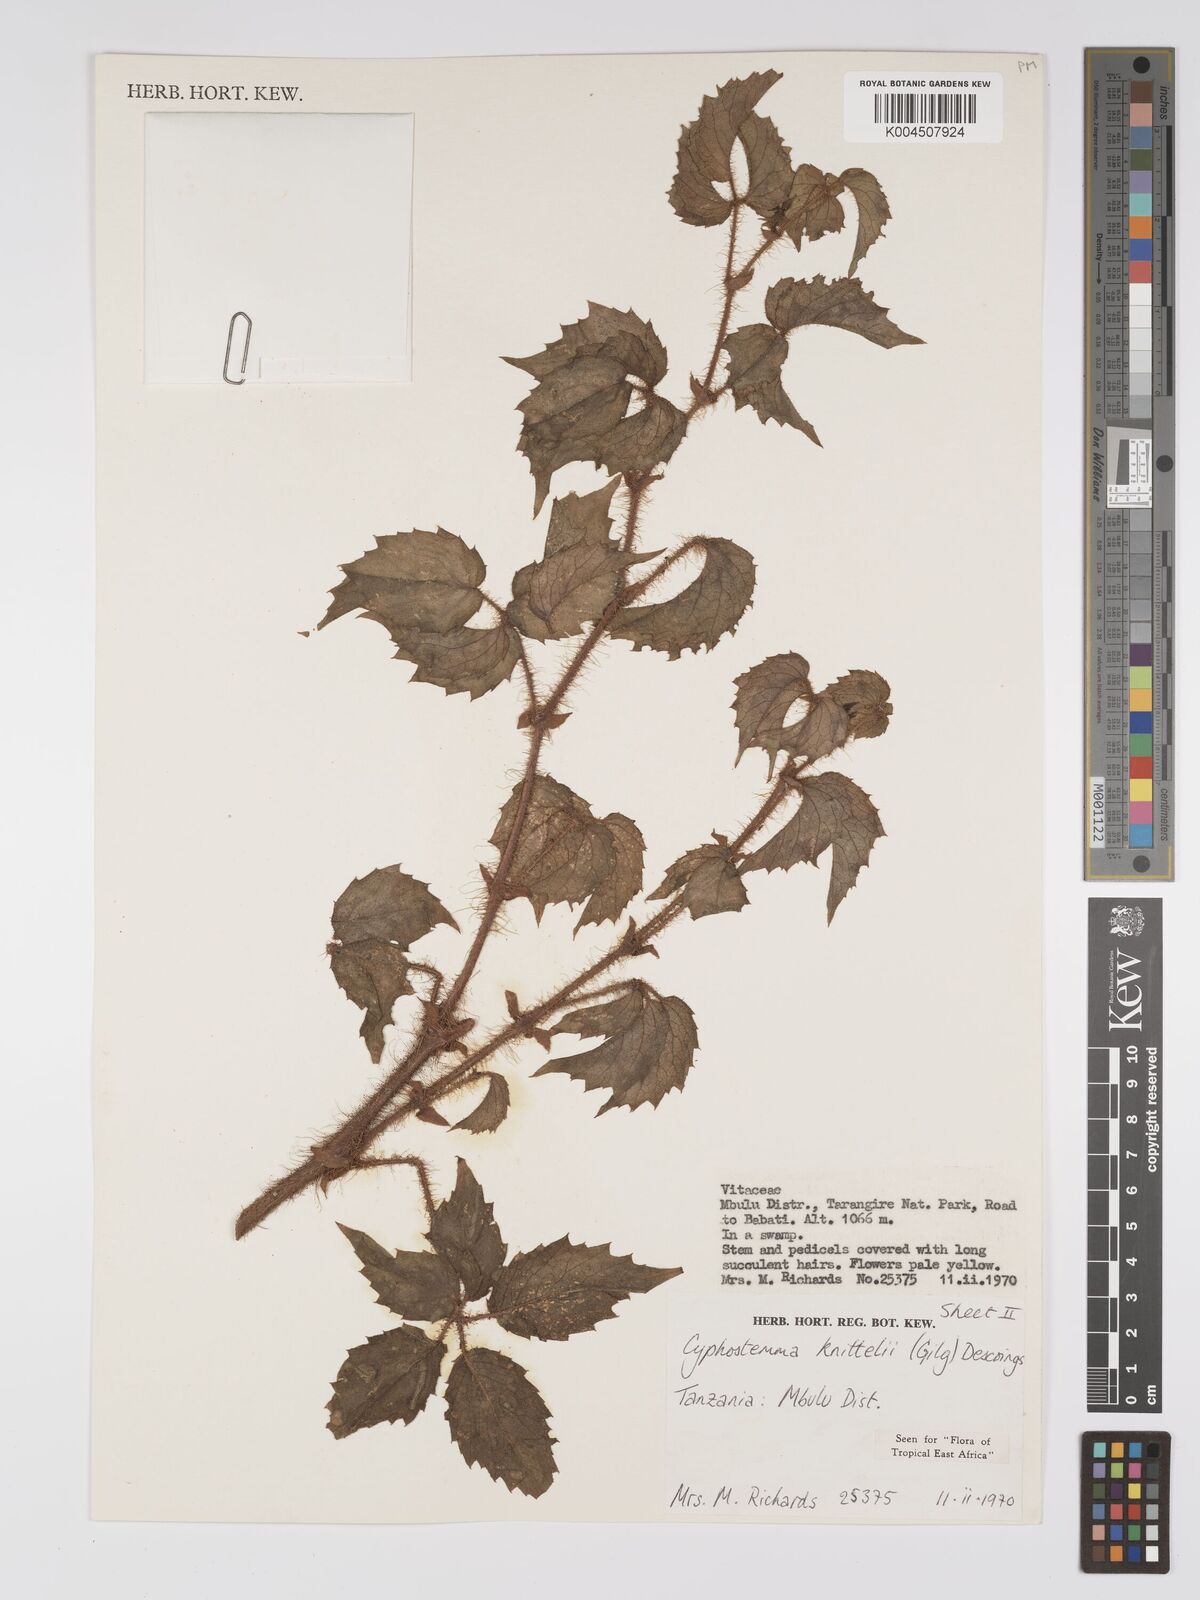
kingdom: Plantae
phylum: Tracheophyta
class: Magnoliopsida
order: Vitales
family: Vitaceae
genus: Cyphostemma
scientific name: Cyphostemma knittelii
